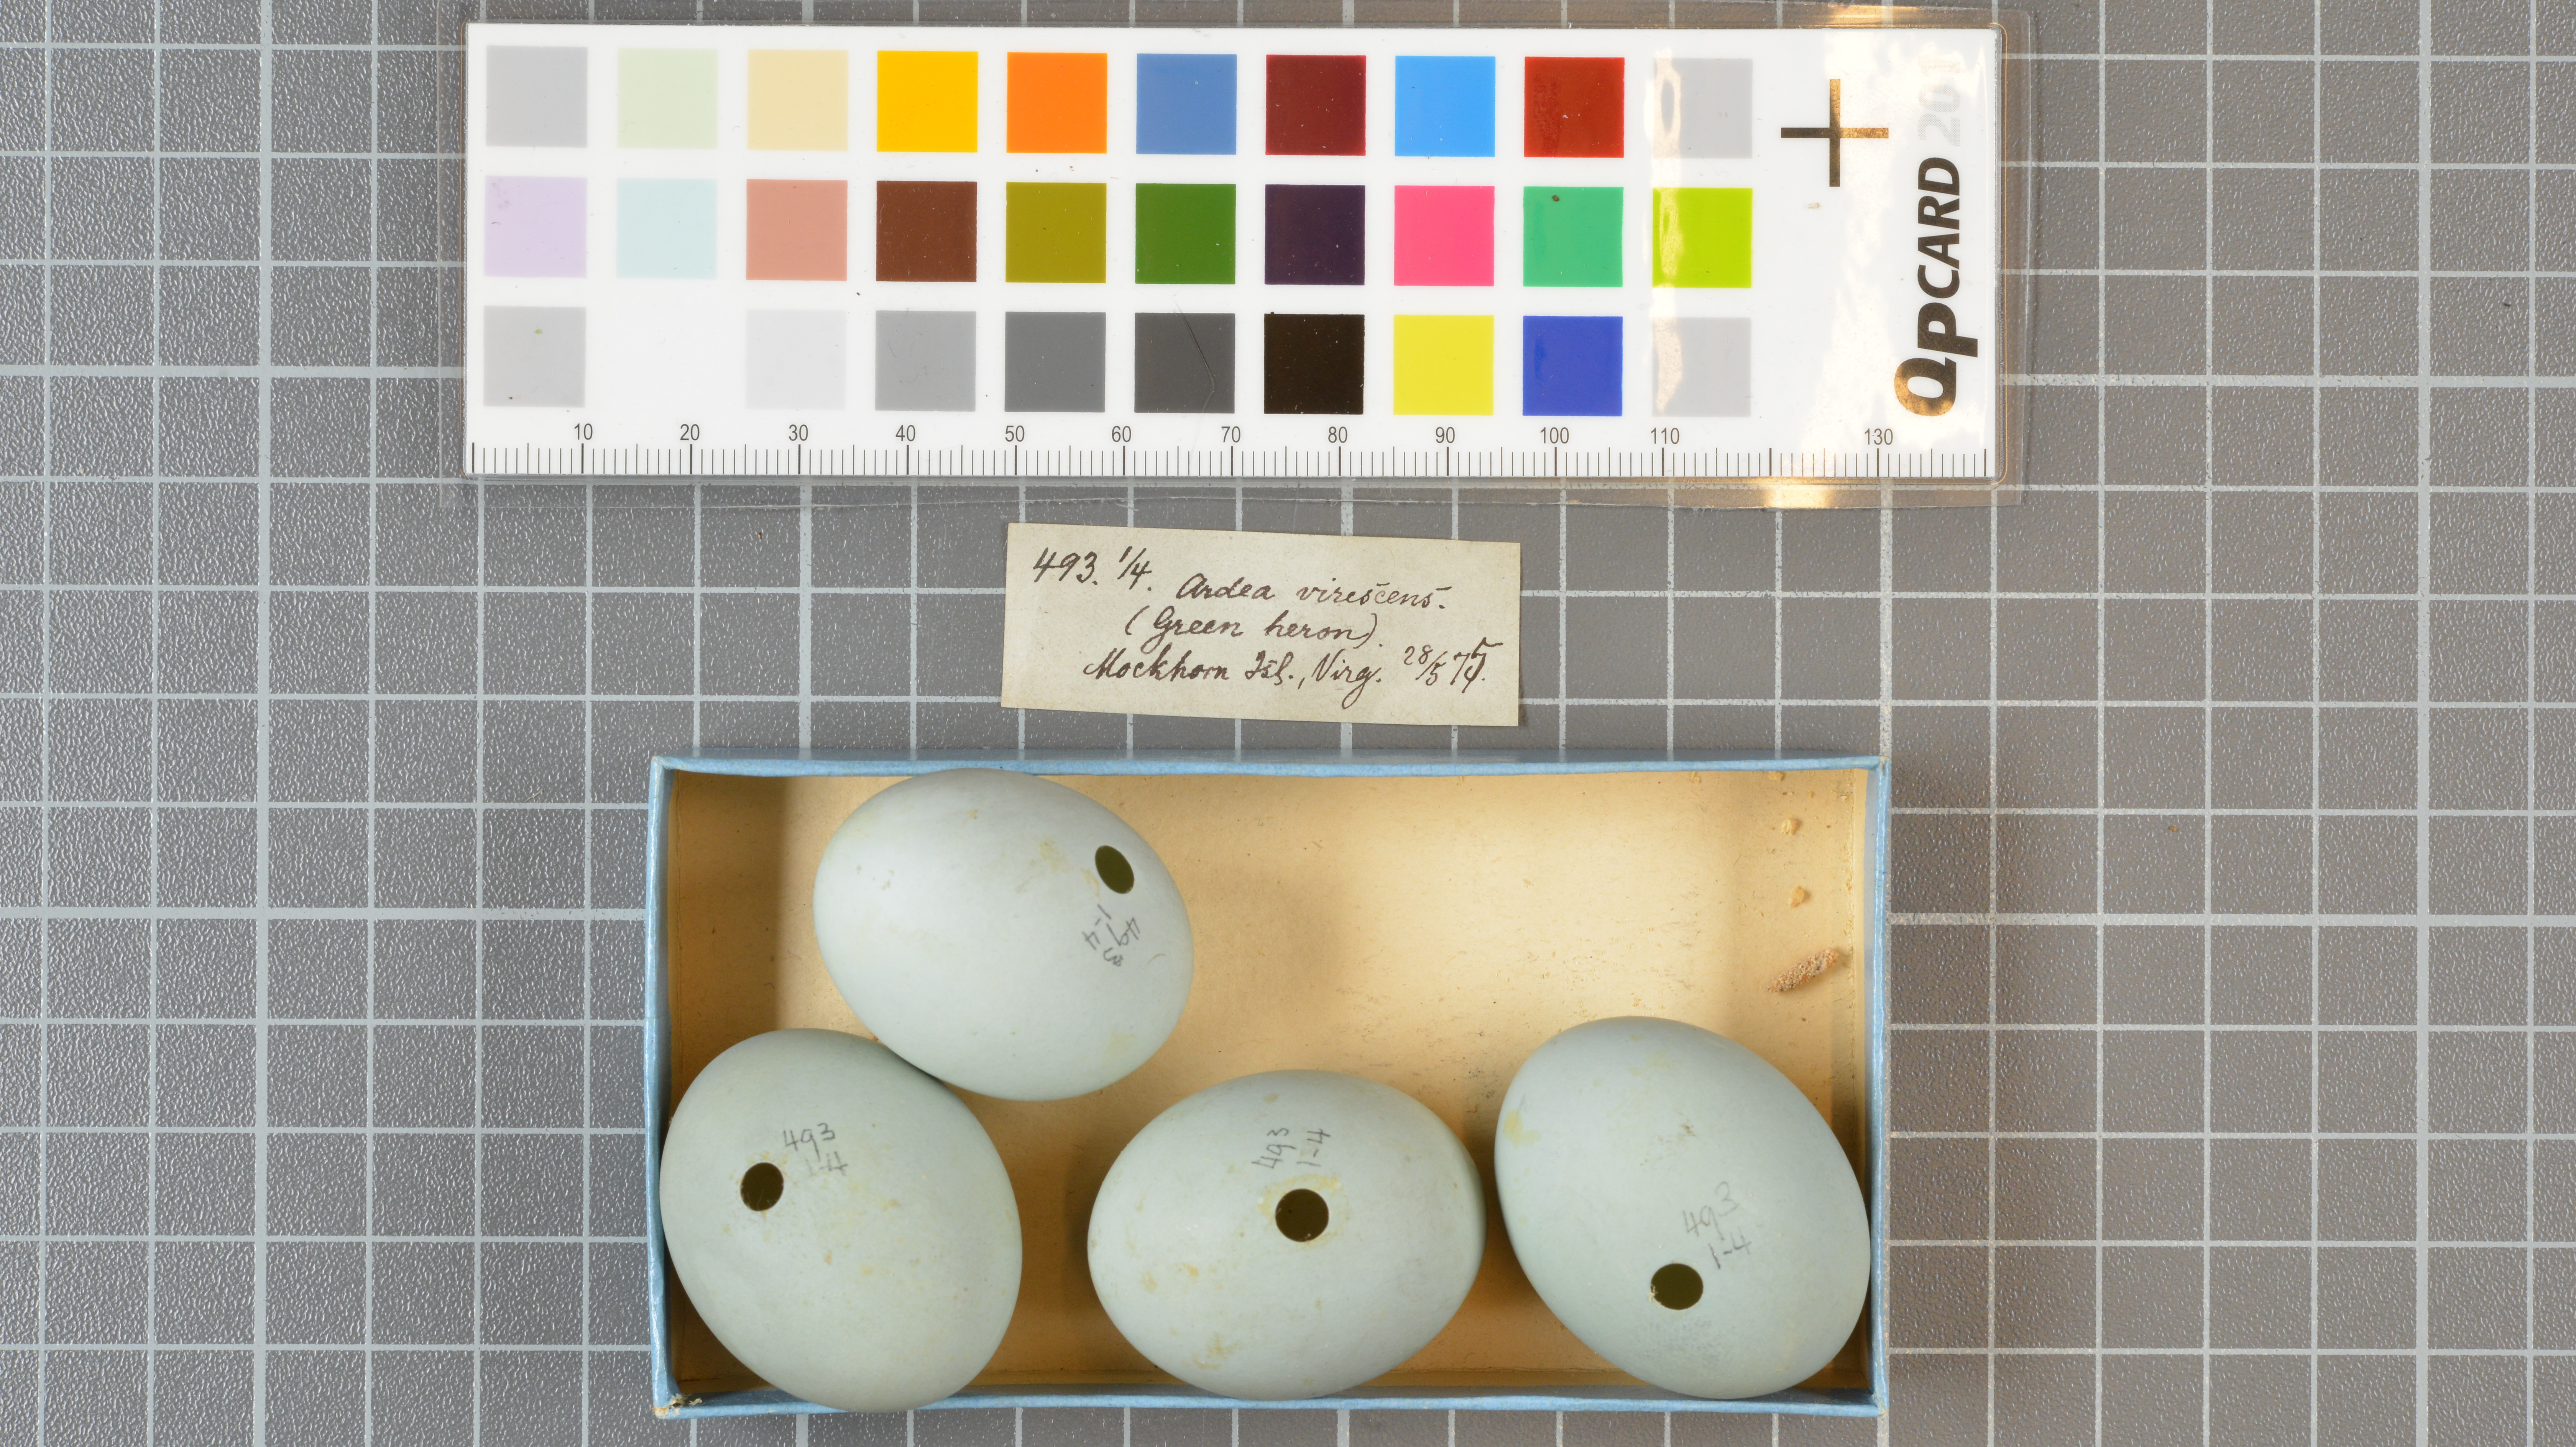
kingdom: Animalia
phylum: Chordata
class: Aves
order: Pelecaniformes
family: Ardeidae
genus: Butorides
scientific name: Butorides virescens
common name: Green heron
